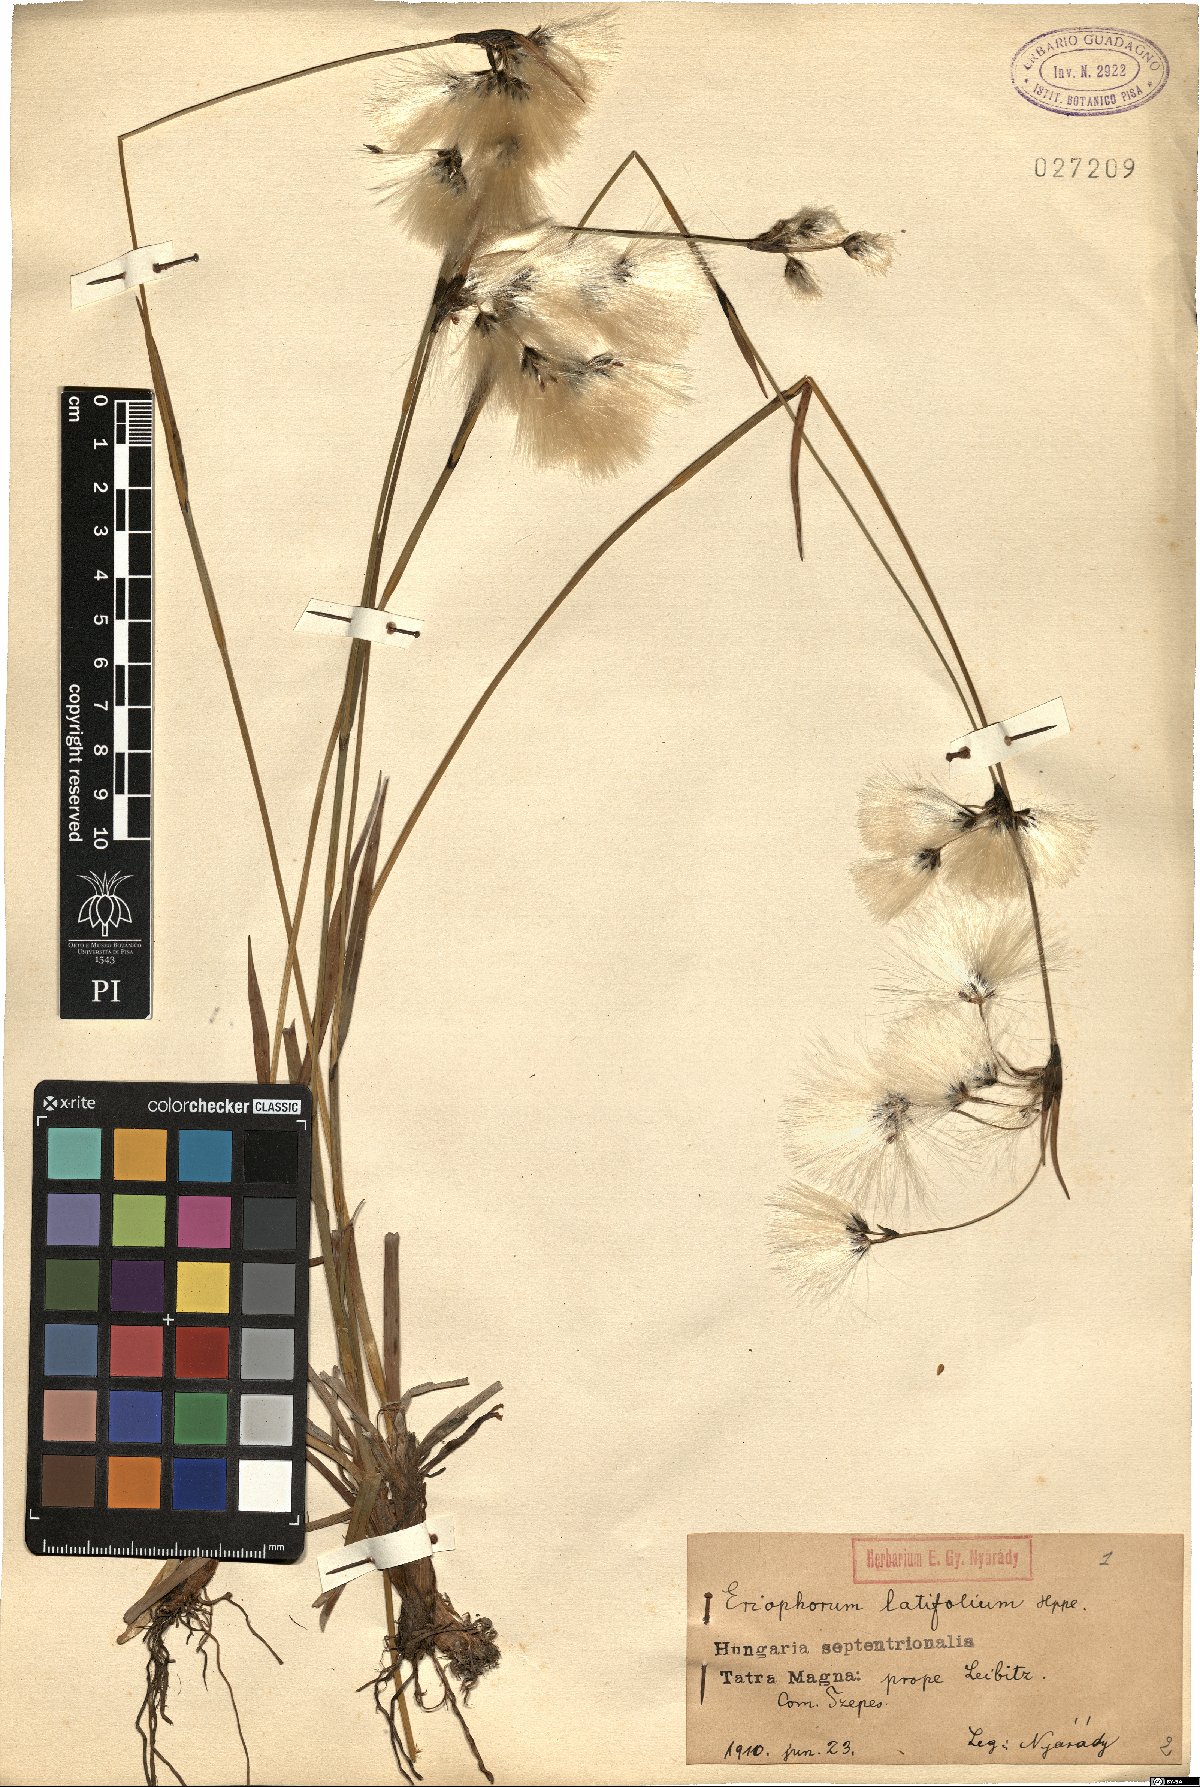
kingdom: Plantae
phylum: Tracheophyta
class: Liliopsida
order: Poales
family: Cyperaceae
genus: Eriophorum
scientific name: Eriophorum latifolium
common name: Broad-leaved cottongrass
